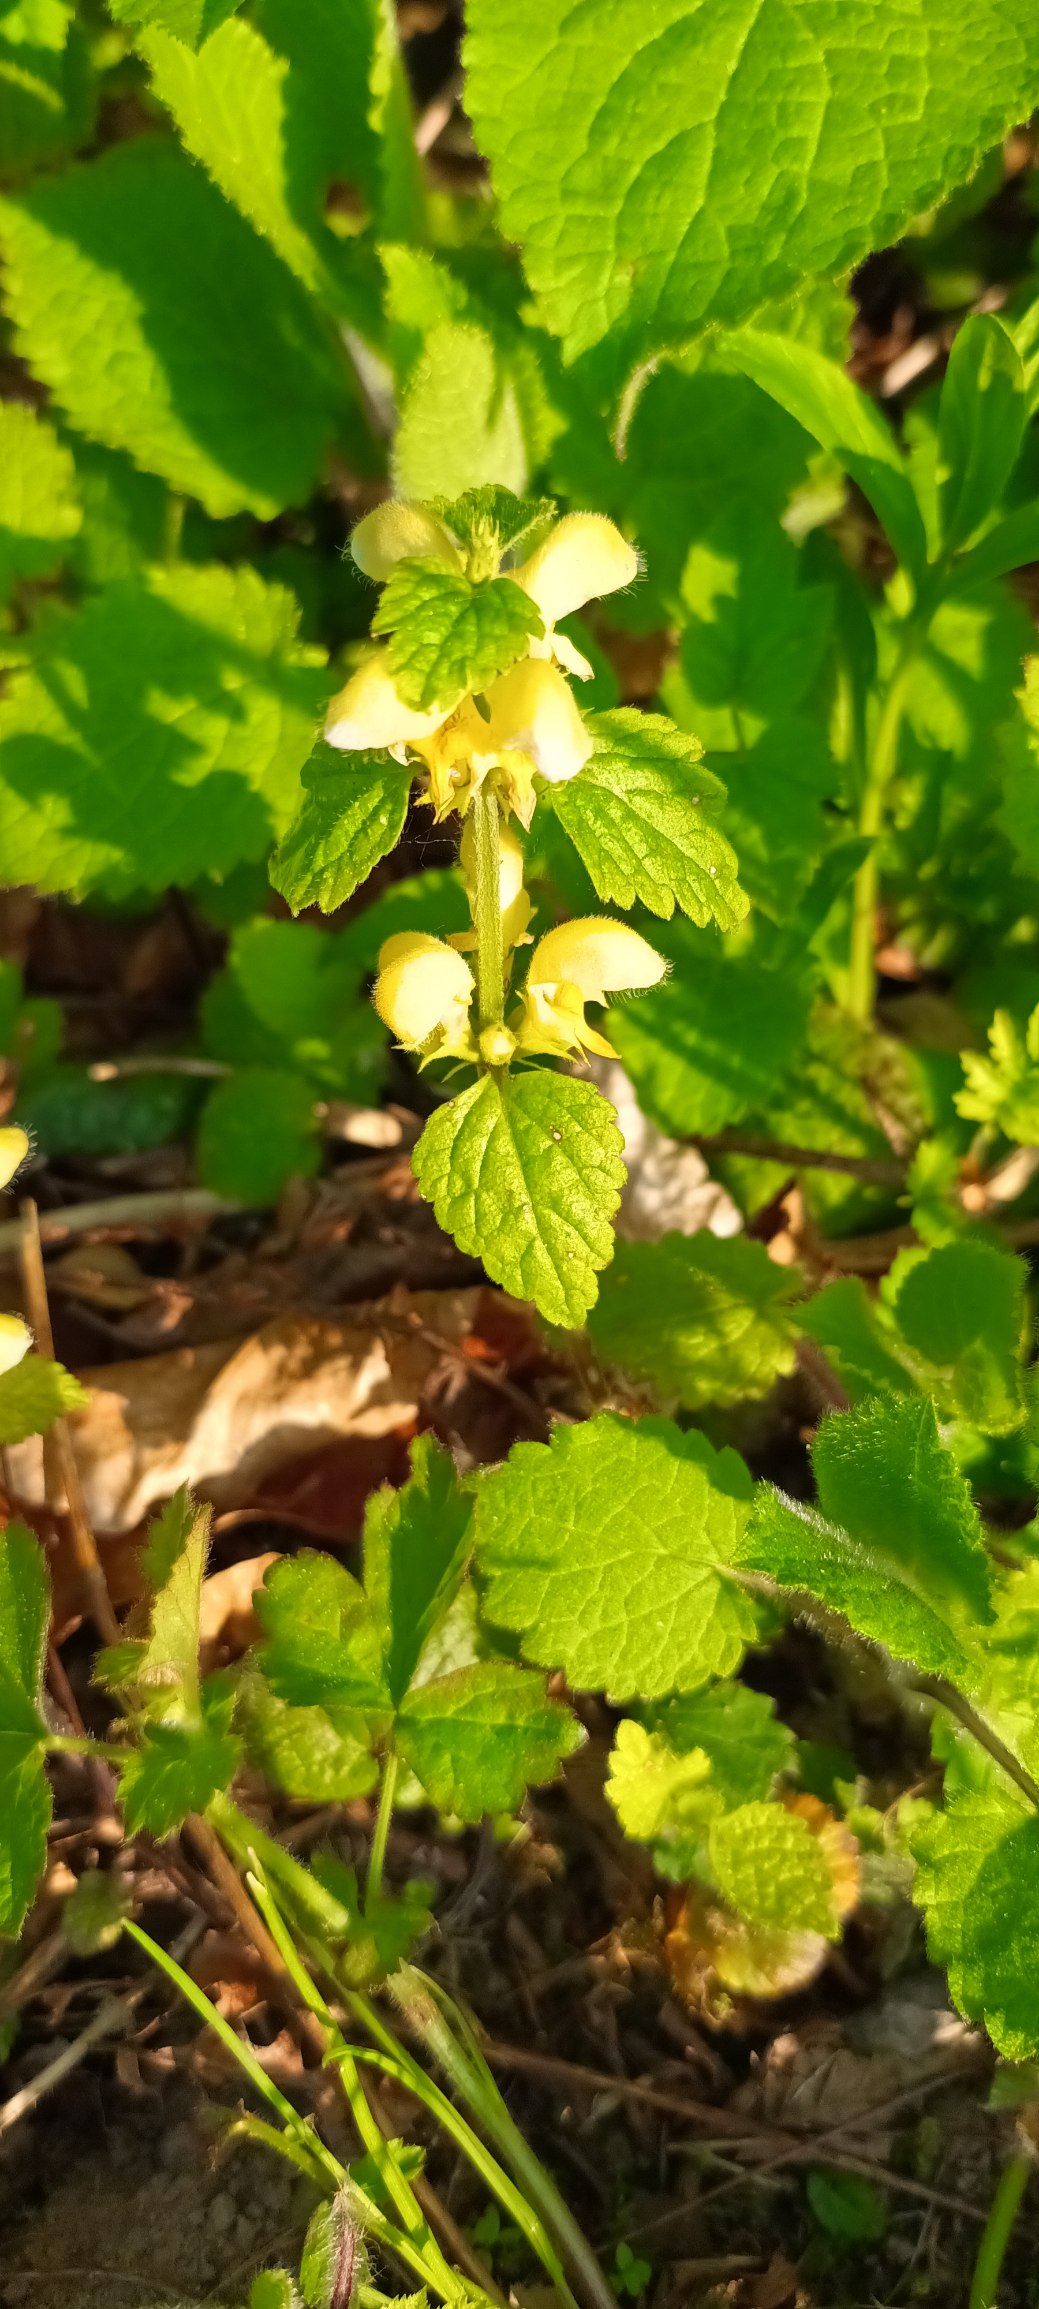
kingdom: Plantae
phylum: Tracheophyta
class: Magnoliopsida
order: Lamiales
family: Lamiaceae
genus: Lamium
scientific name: Lamium galeobdolon
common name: Almindelig guldnælde
